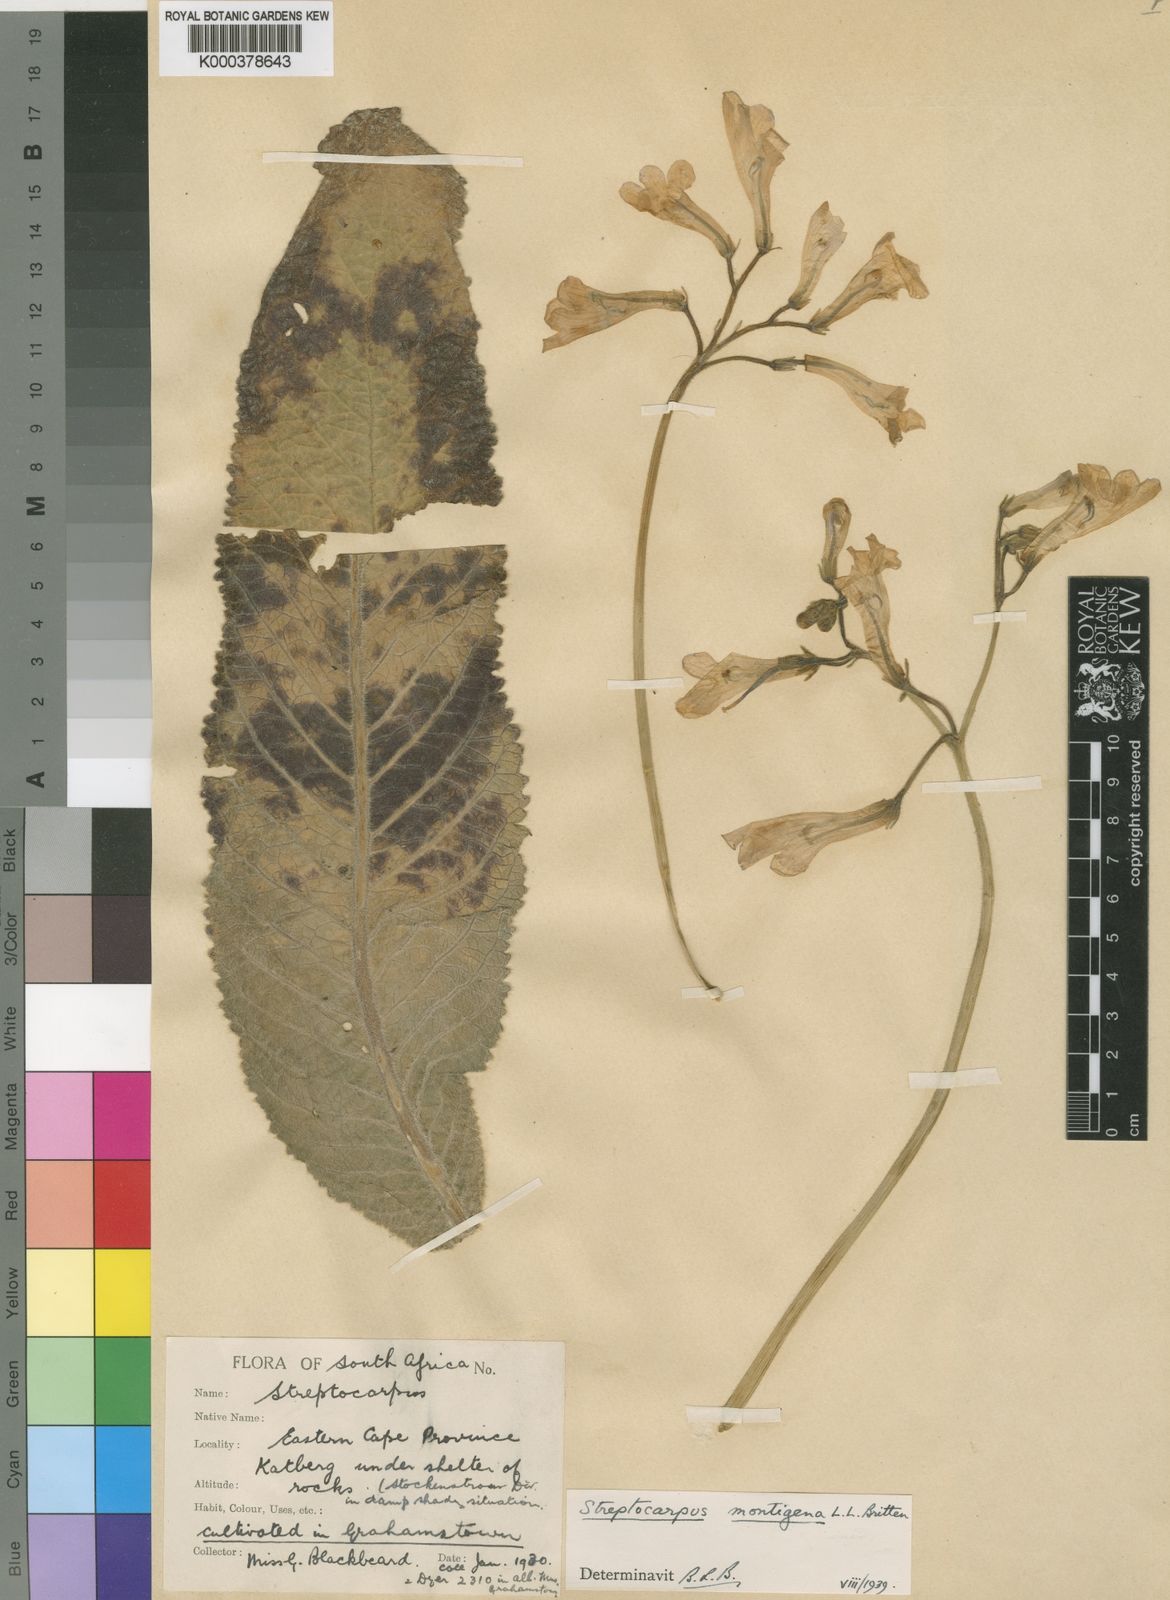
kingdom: Plantae
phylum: Tracheophyta
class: Magnoliopsida
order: Lamiales
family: Gesneriaceae
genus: Streptocarpus
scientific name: Streptocarpus montigena
